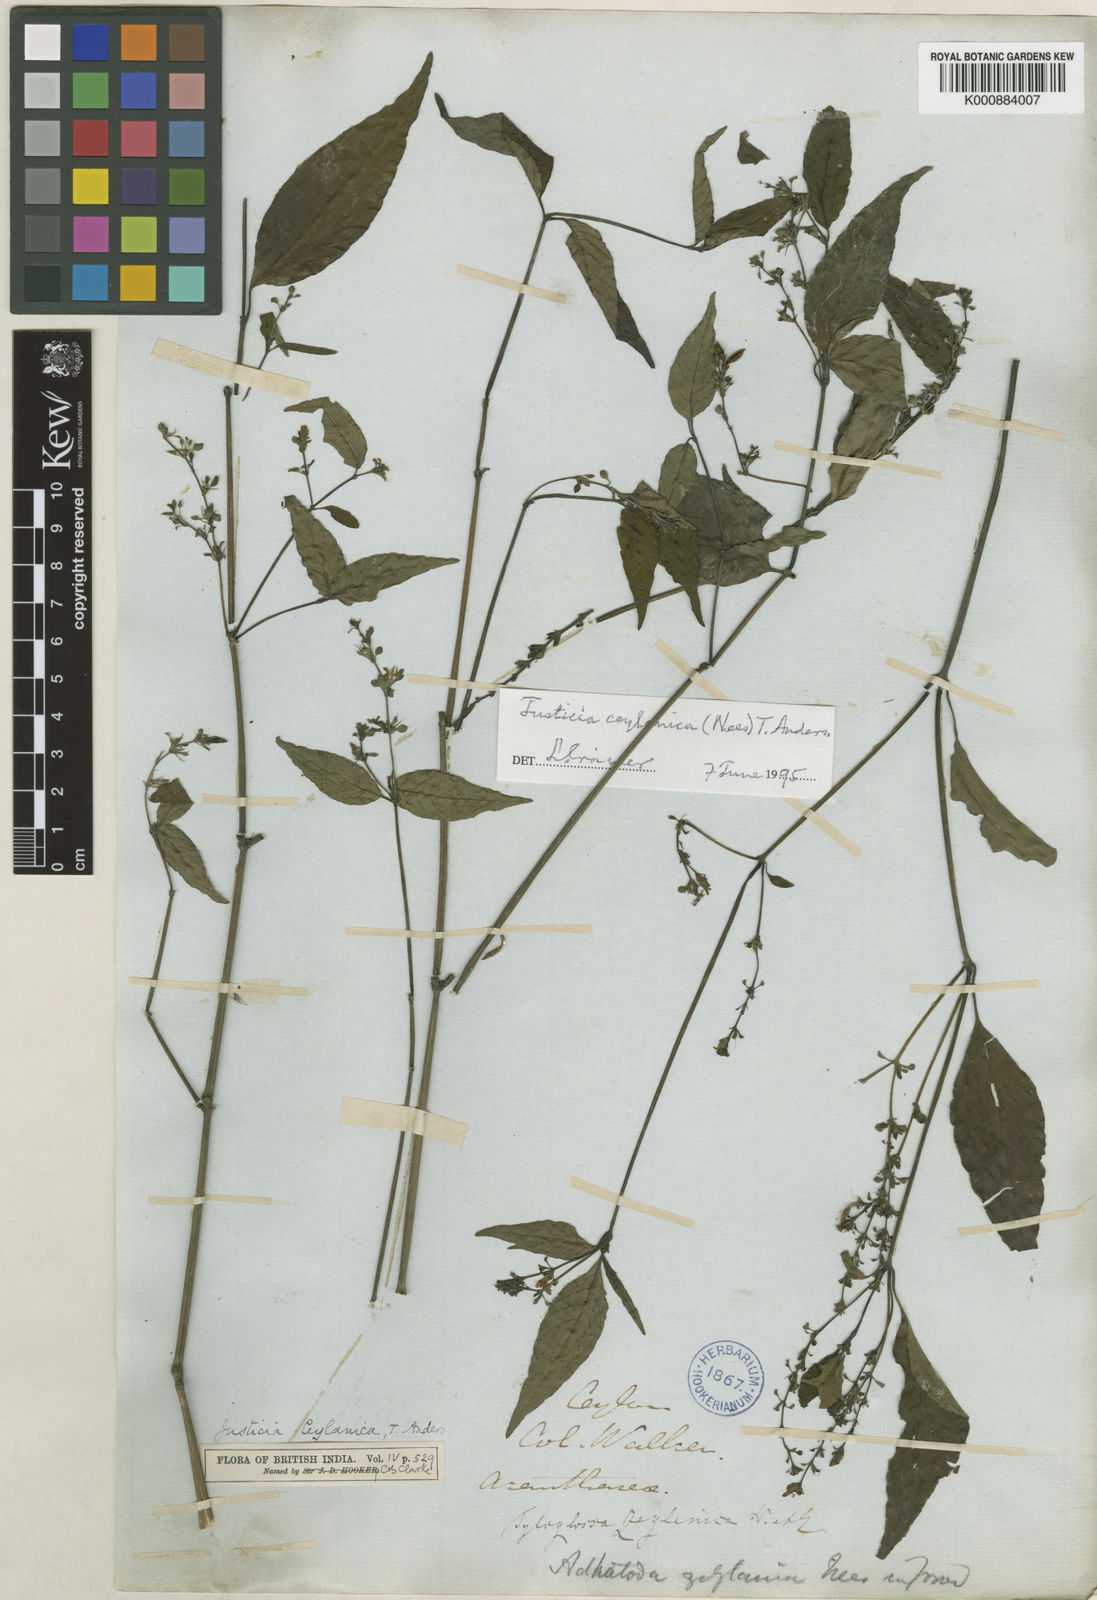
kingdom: Plantae
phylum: Tracheophyta
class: Magnoliopsida
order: Lamiales
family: Acanthaceae
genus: Justicia
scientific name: Justicia ceylanica
